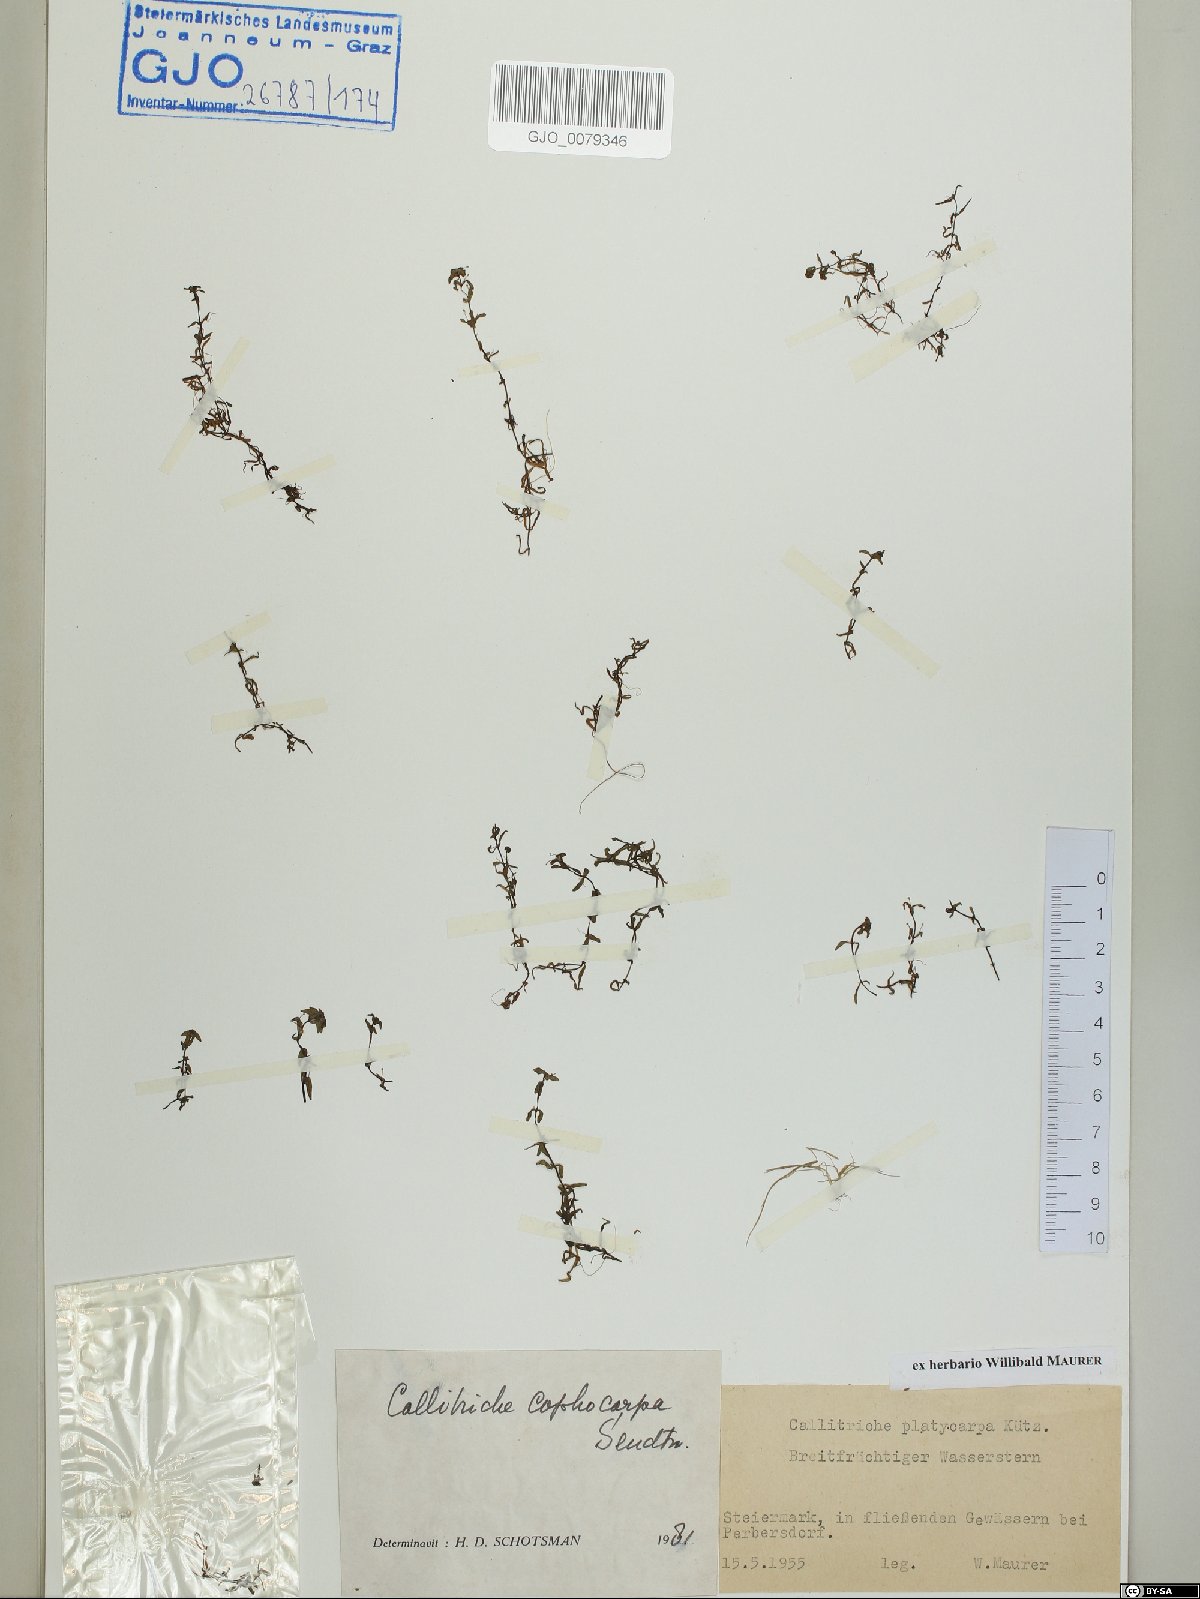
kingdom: Plantae
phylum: Tracheophyta
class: Magnoliopsida
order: Lamiales
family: Plantaginaceae
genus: Callitriche
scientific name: Callitriche cophocarpa
